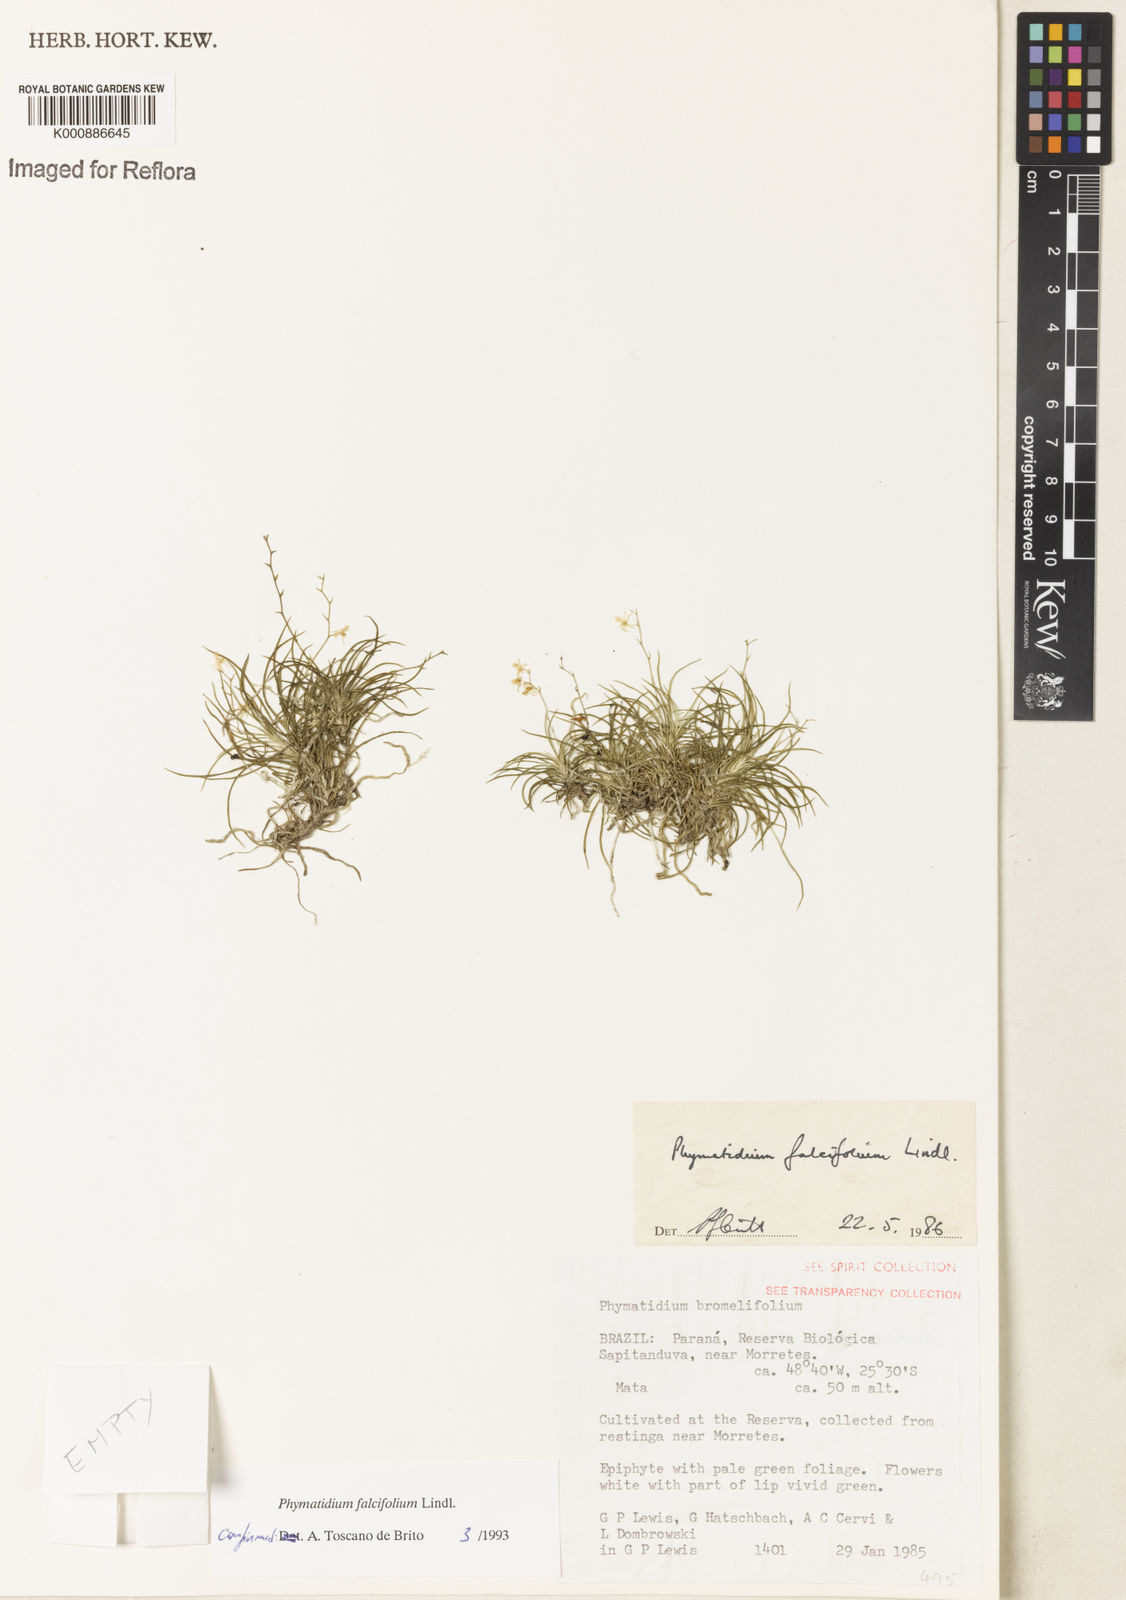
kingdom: Plantae
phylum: Tracheophyta
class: Liliopsida
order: Asparagales
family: Orchidaceae
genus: Phymatidium
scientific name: Phymatidium falcifolium
